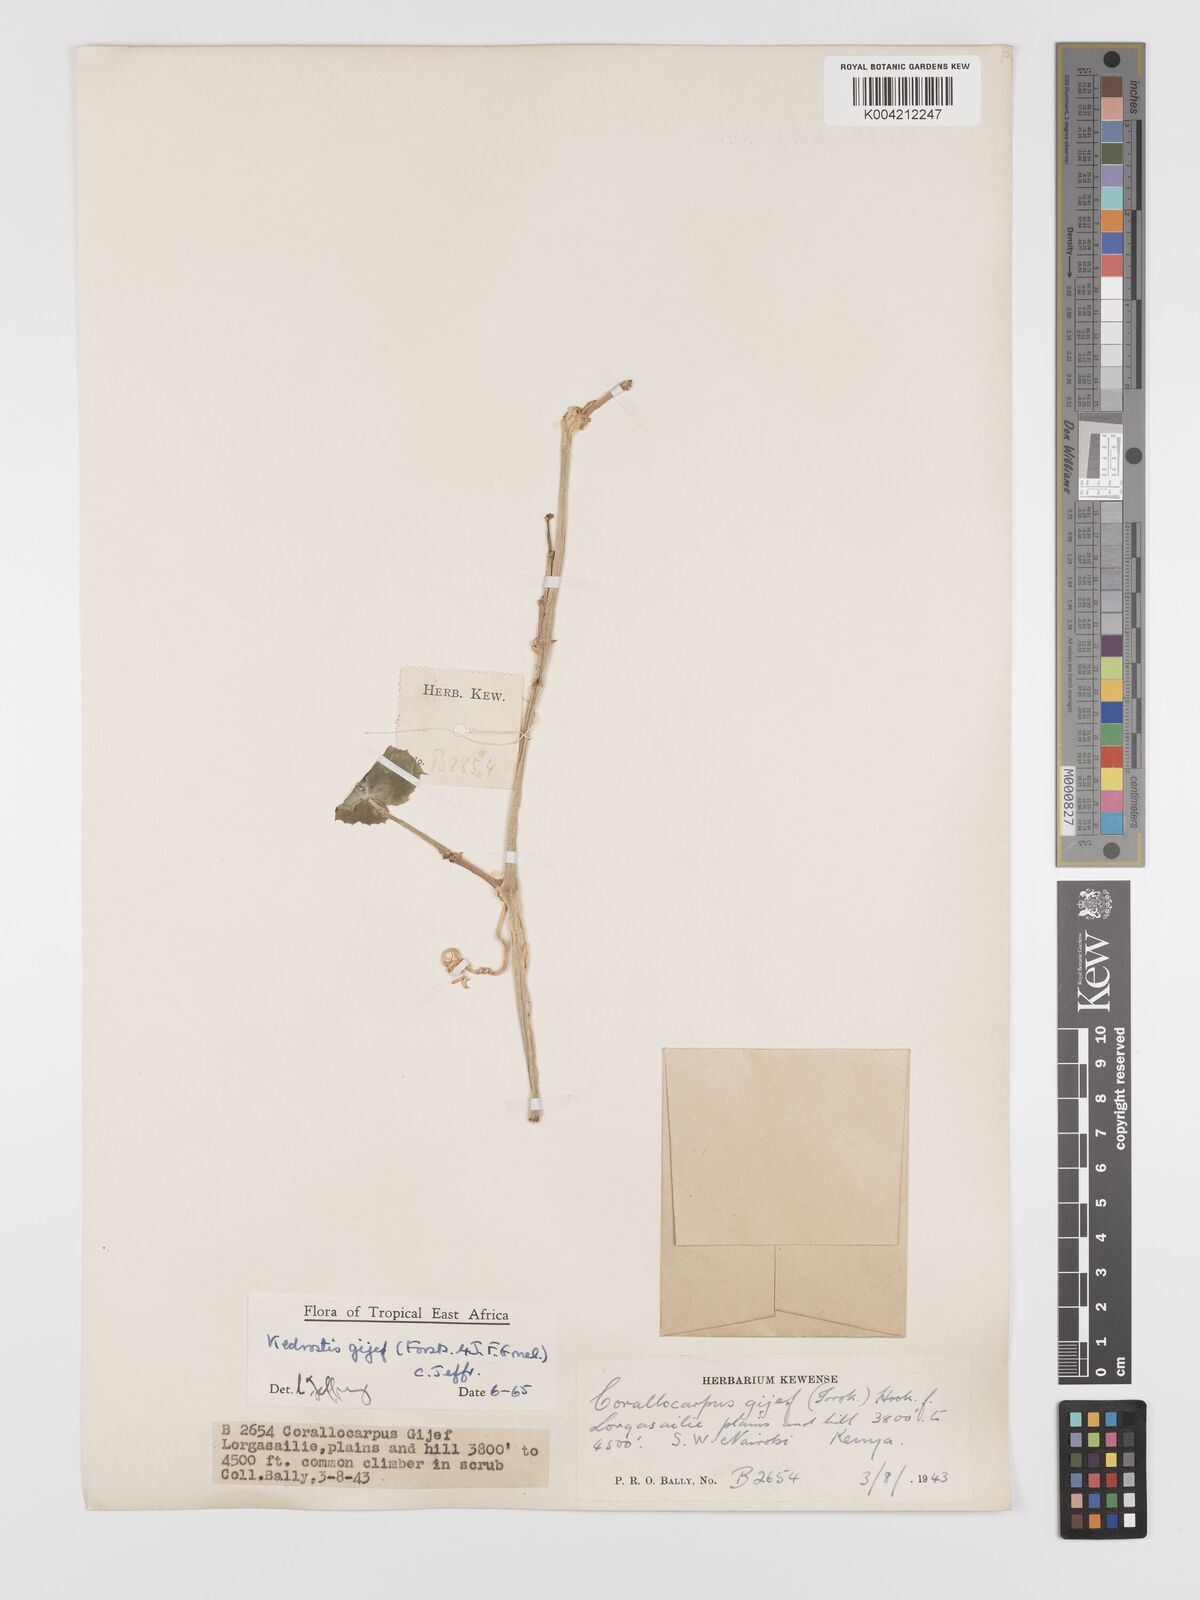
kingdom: Plantae
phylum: Tracheophyta
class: Magnoliopsida
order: Cucurbitales
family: Cucurbitaceae
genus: Kedrostis
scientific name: Kedrostis gijef
